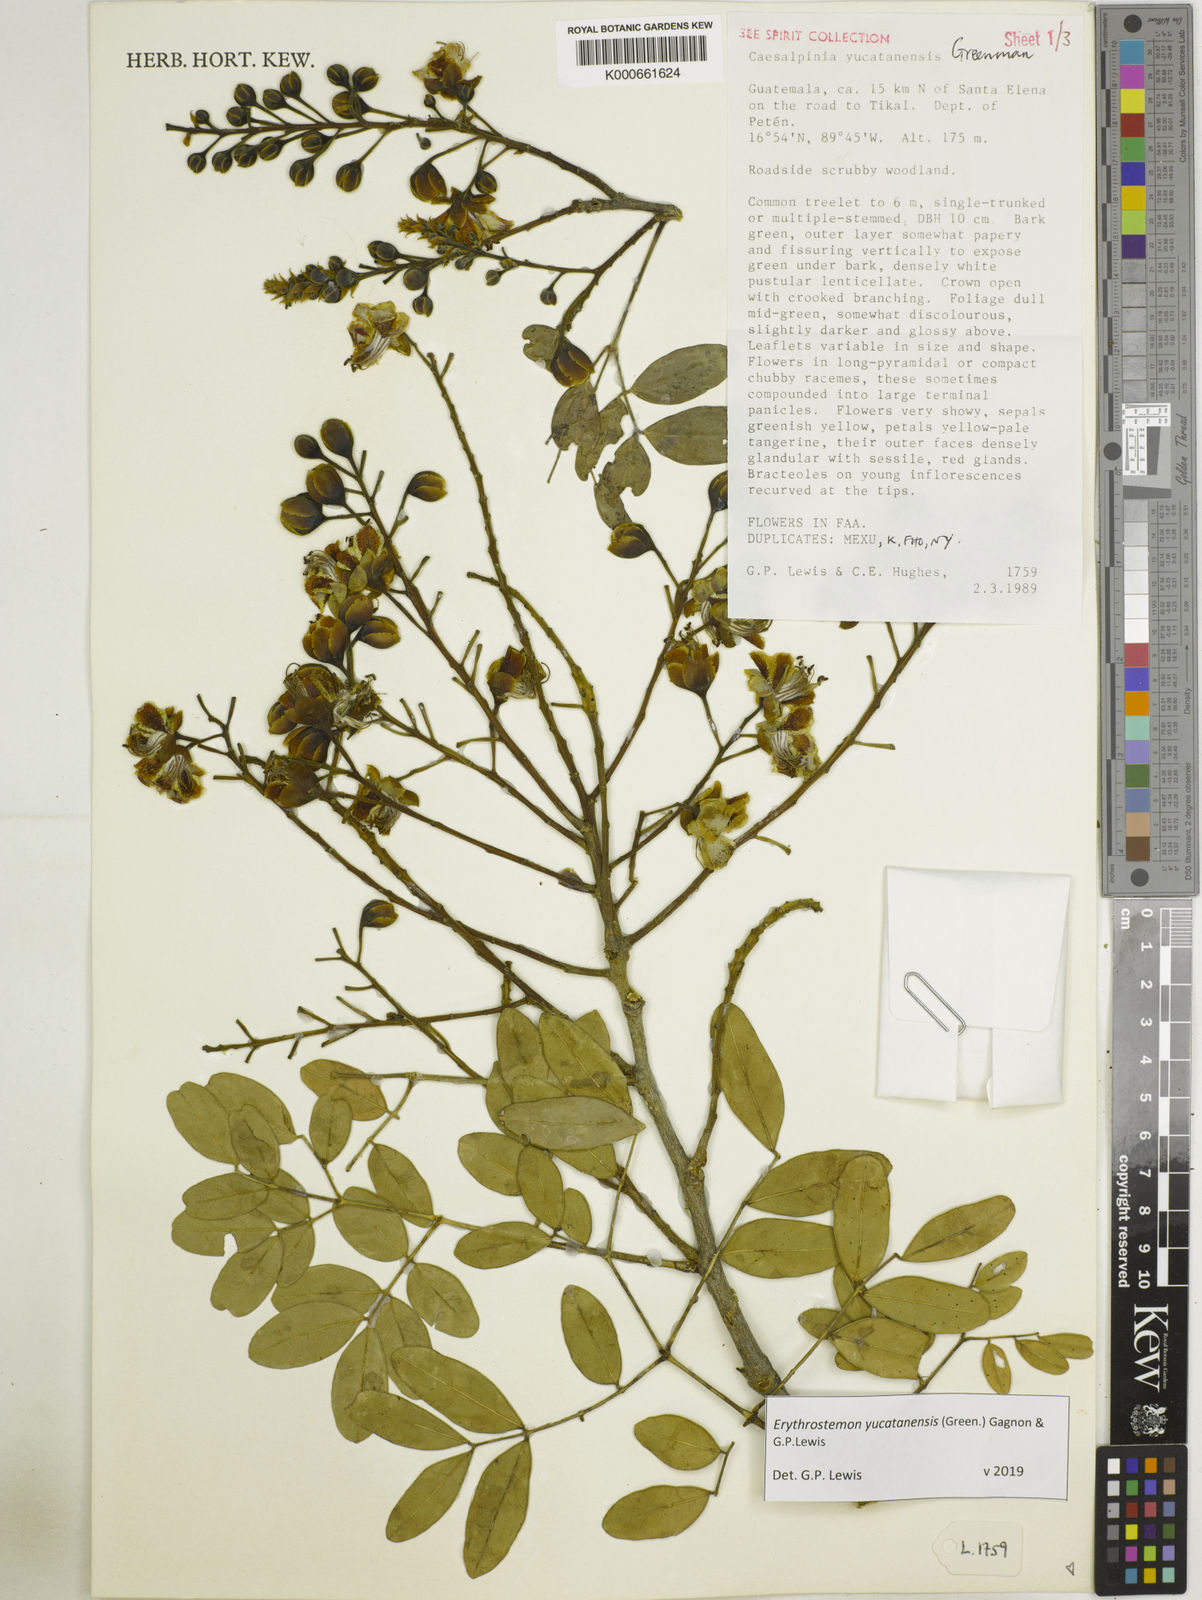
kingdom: Plantae
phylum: Tracheophyta
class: Magnoliopsida
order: Fabales
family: Fabaceae
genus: Caesalpinia
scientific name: Caesalpinia
